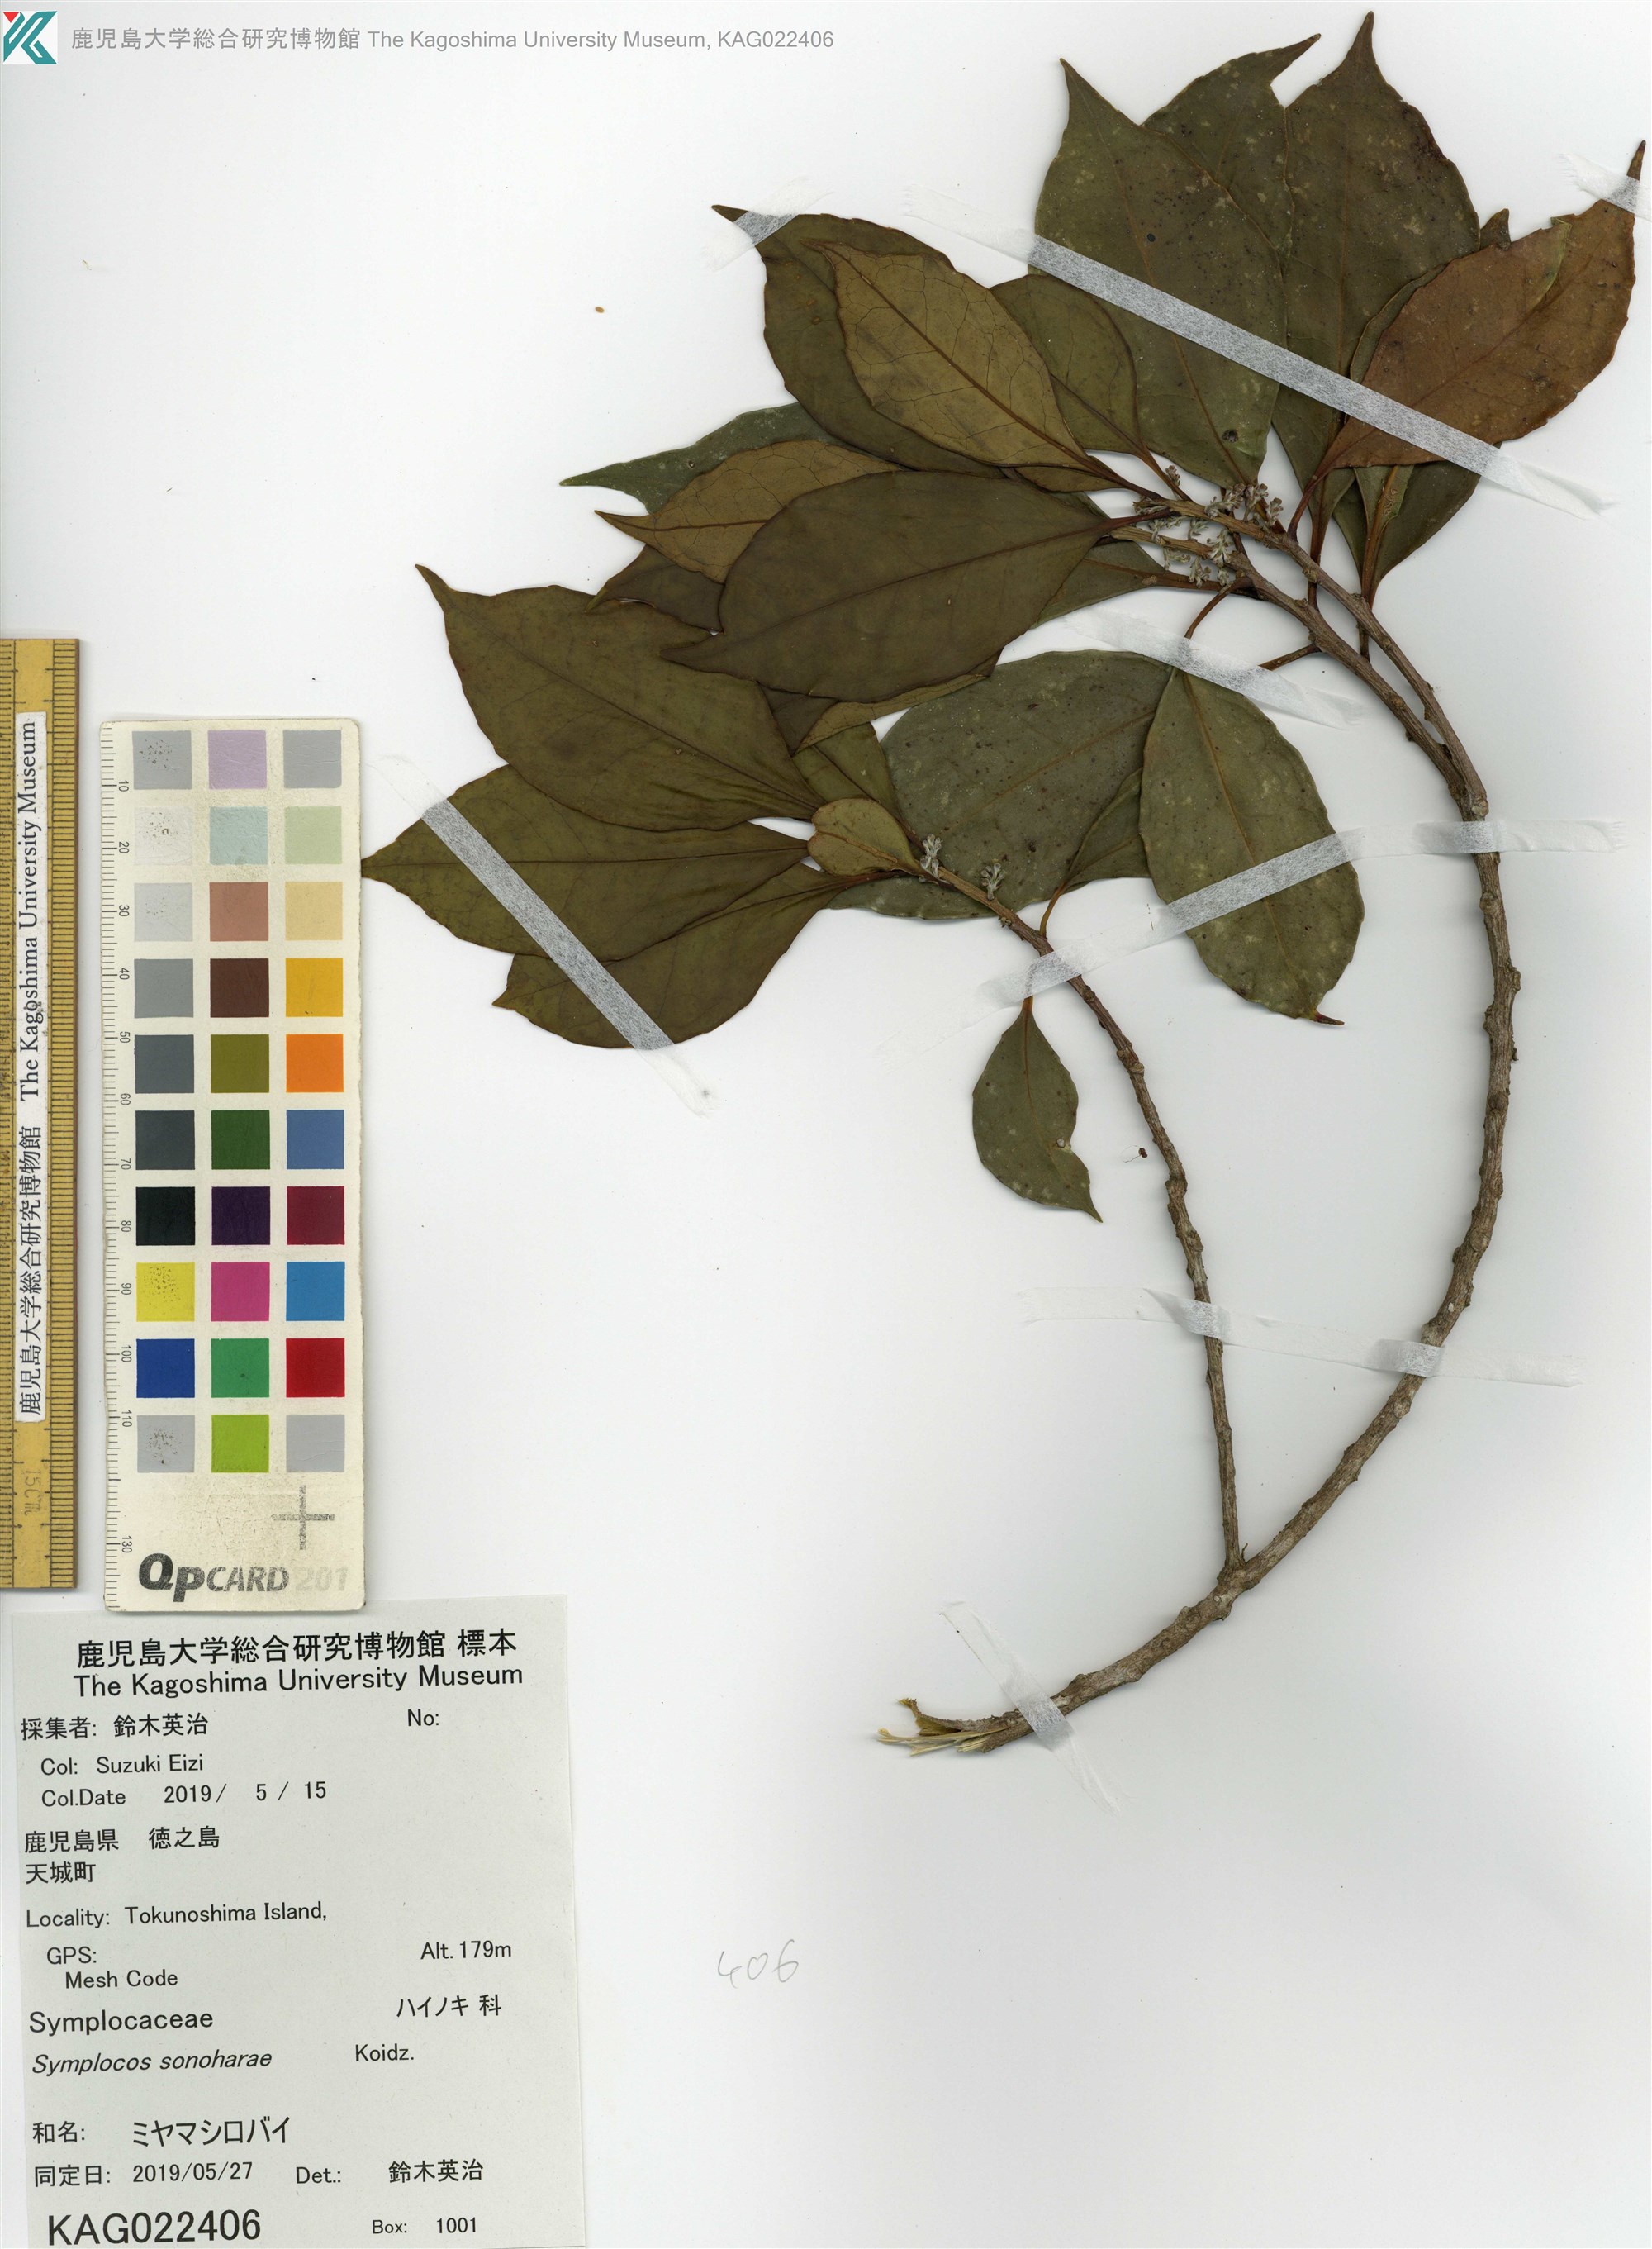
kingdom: Plantae
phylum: Tracheophyta
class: Magnoliopsida
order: Ericales
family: Symplocaceae
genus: Symplocos
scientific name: Symplocos sonoharae
